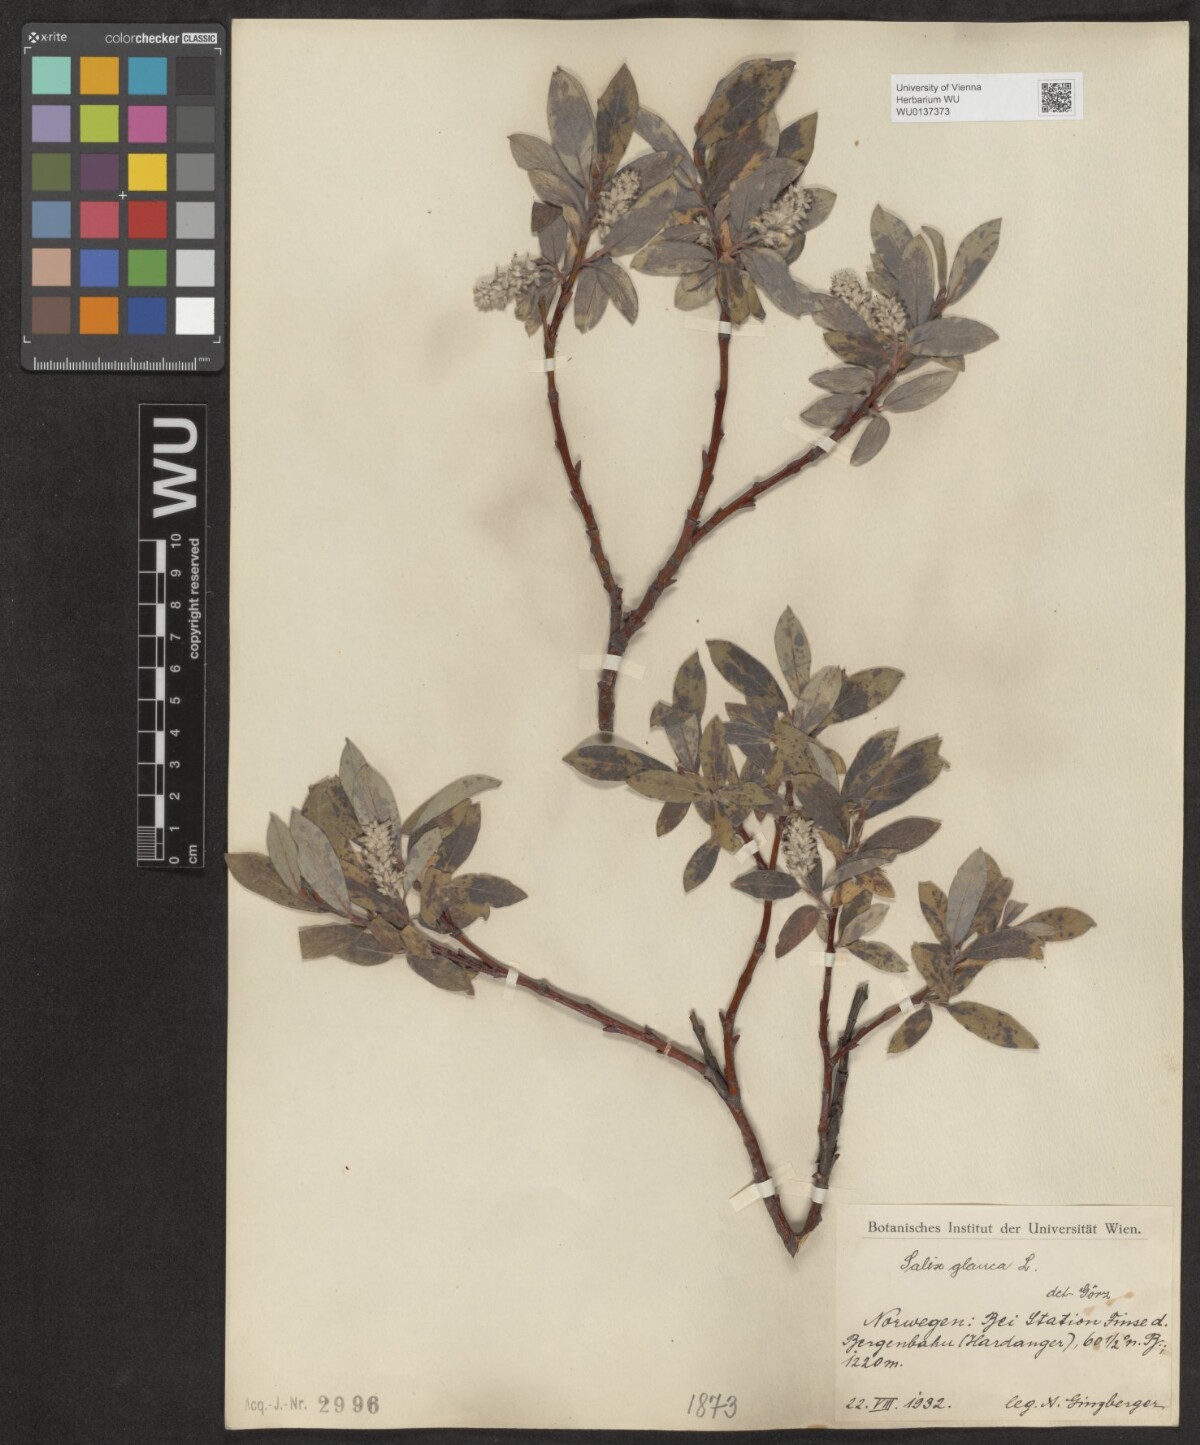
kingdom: Plantae
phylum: Tracheophyta
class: Magnoliopsida
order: Malpighiales
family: Salicaceae
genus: Salix
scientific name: Salix glauca
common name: Glaucous willow
